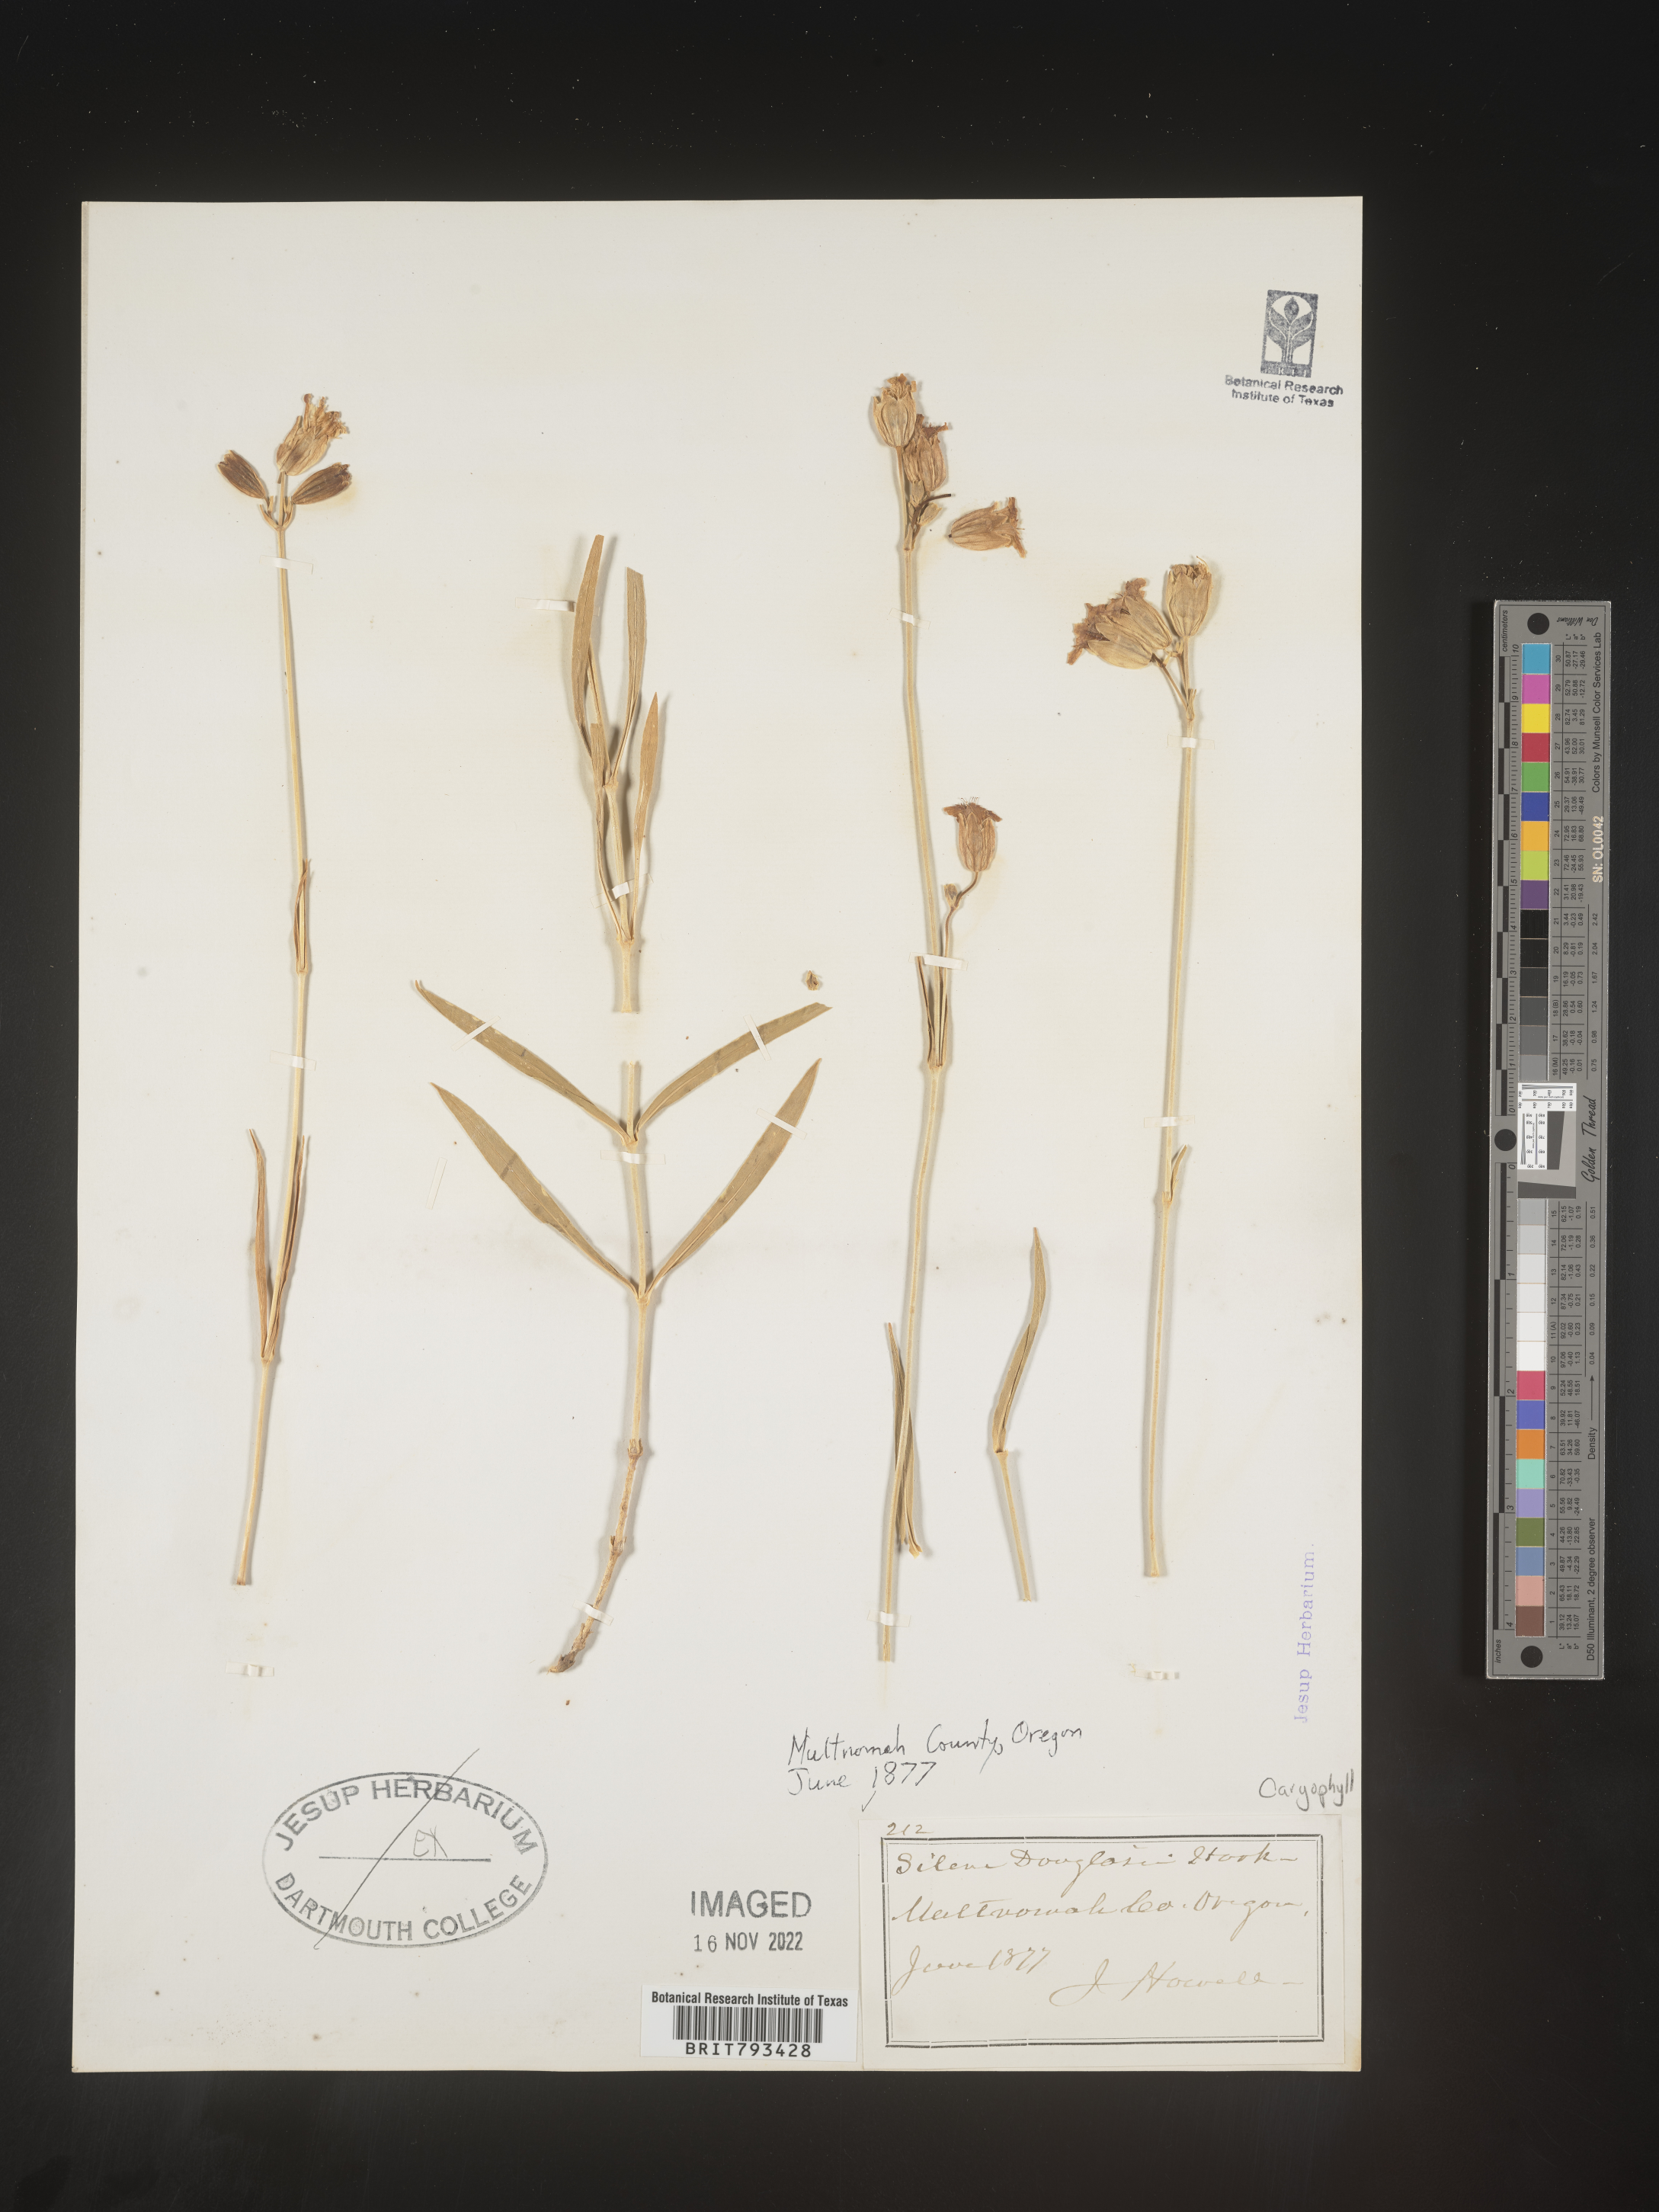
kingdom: Plantae
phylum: Tracheophyta
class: Magnoliopsida
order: Caryophyllales
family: Caryophyllaceae
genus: Silene
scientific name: Silene douglasii
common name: Douglas's catchfly
